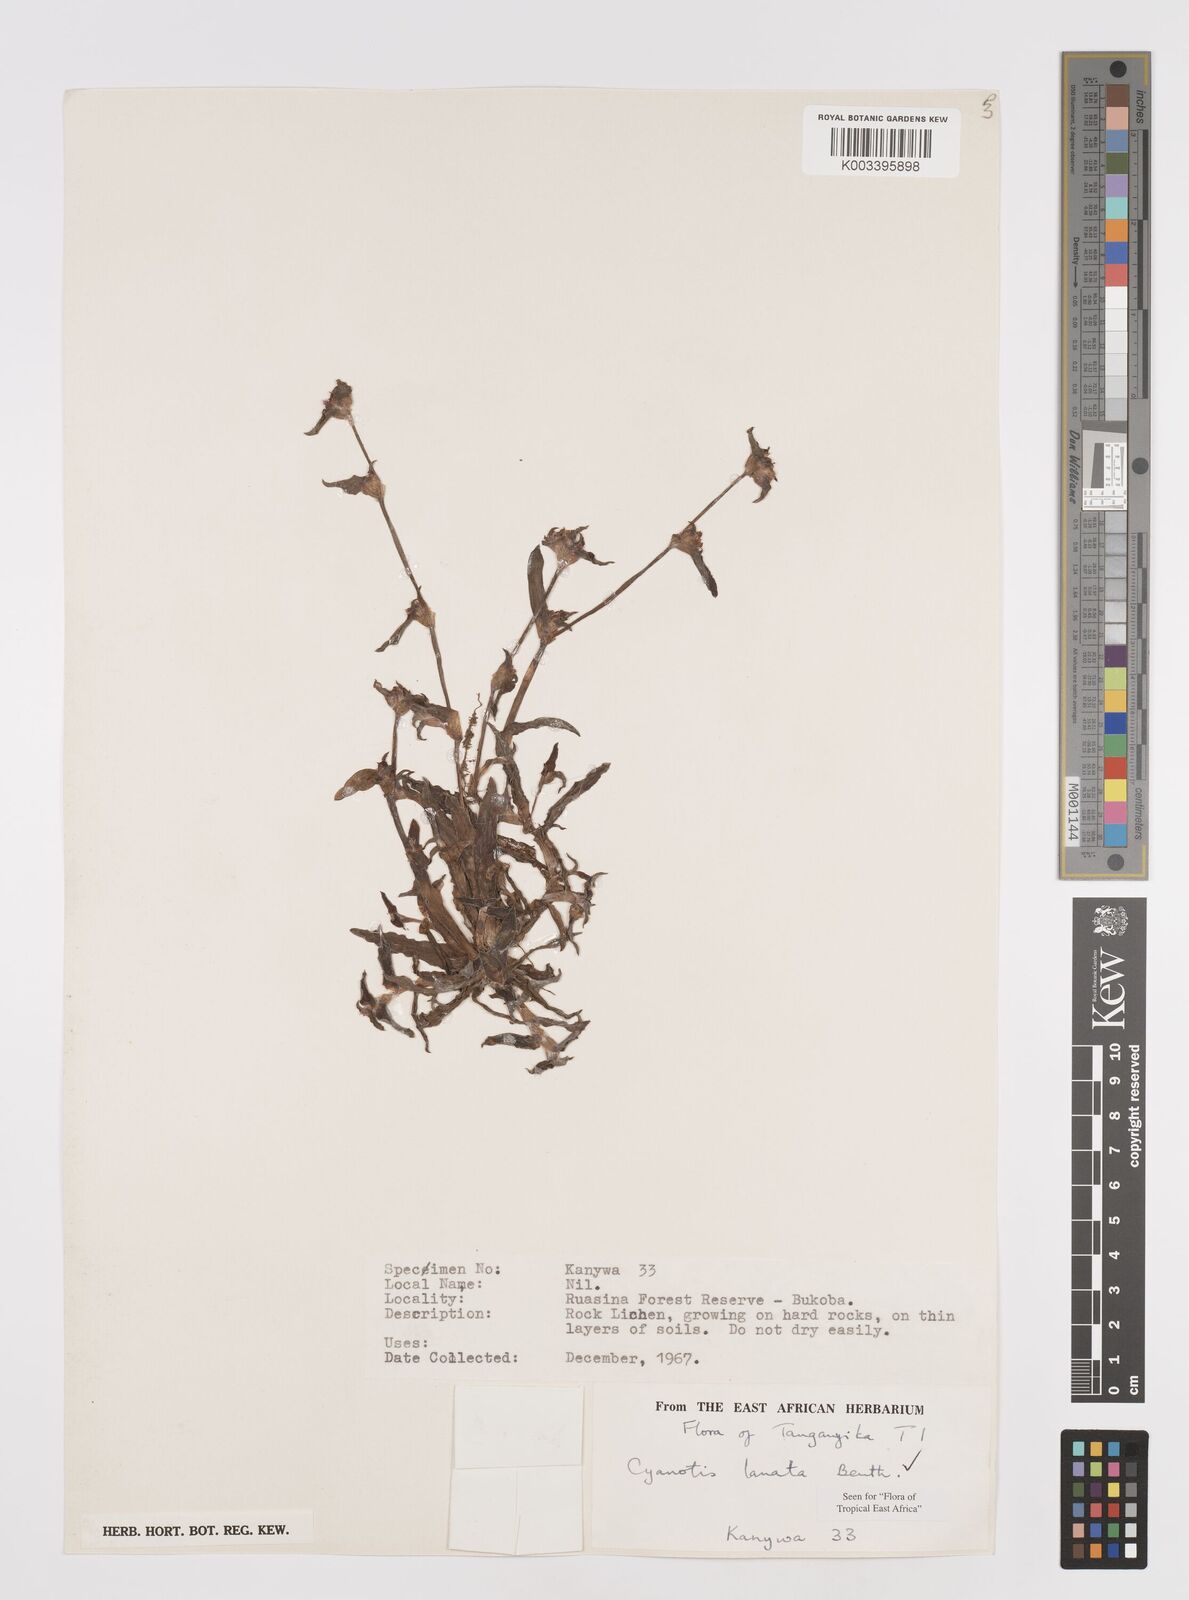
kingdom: Plantae
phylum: Tracheophyta
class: Liliopsida
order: Commelinales
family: Commelinaceae
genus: Cyanotis
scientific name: Cyanotis lanata
